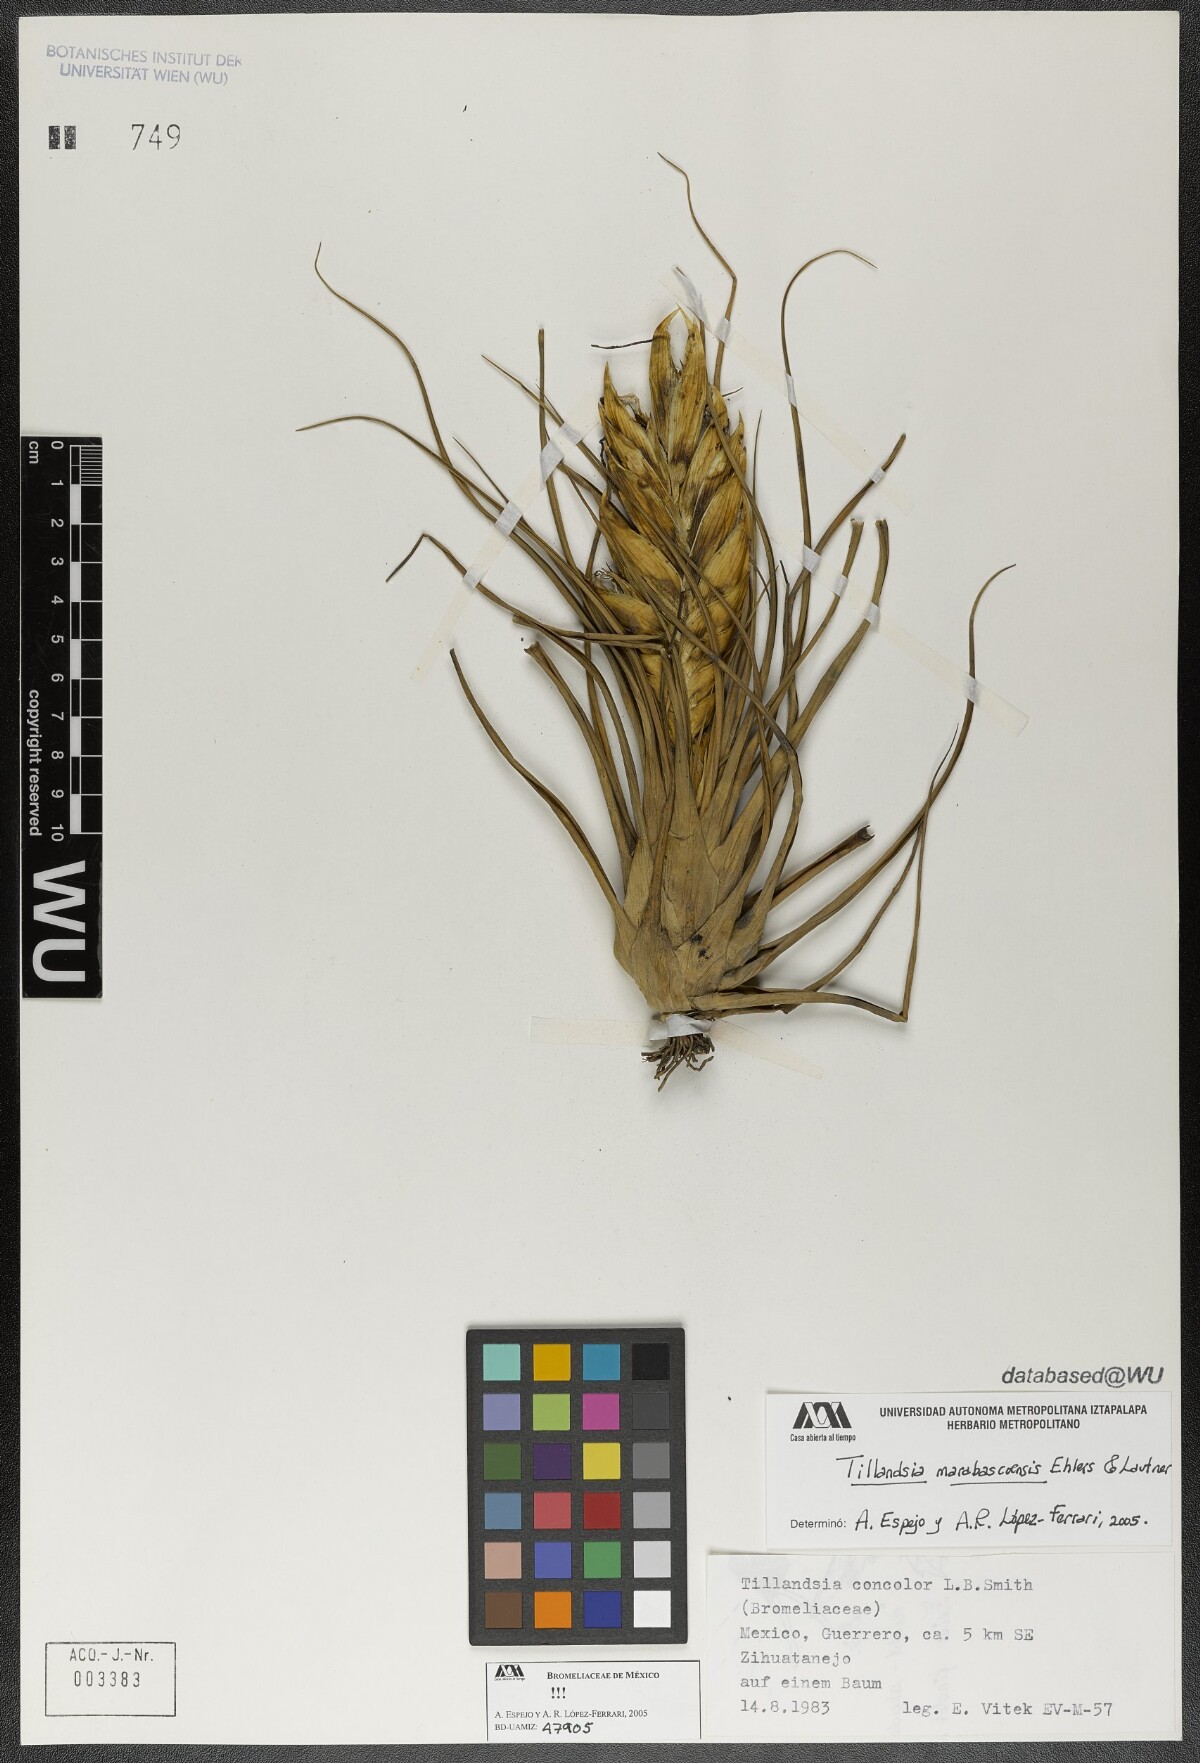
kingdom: Plantae
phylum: Tracheophyta
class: Liliopsida
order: Poales
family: Bromeliaceae
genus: Tillandsia
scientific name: Tillandsia marabascoensis
